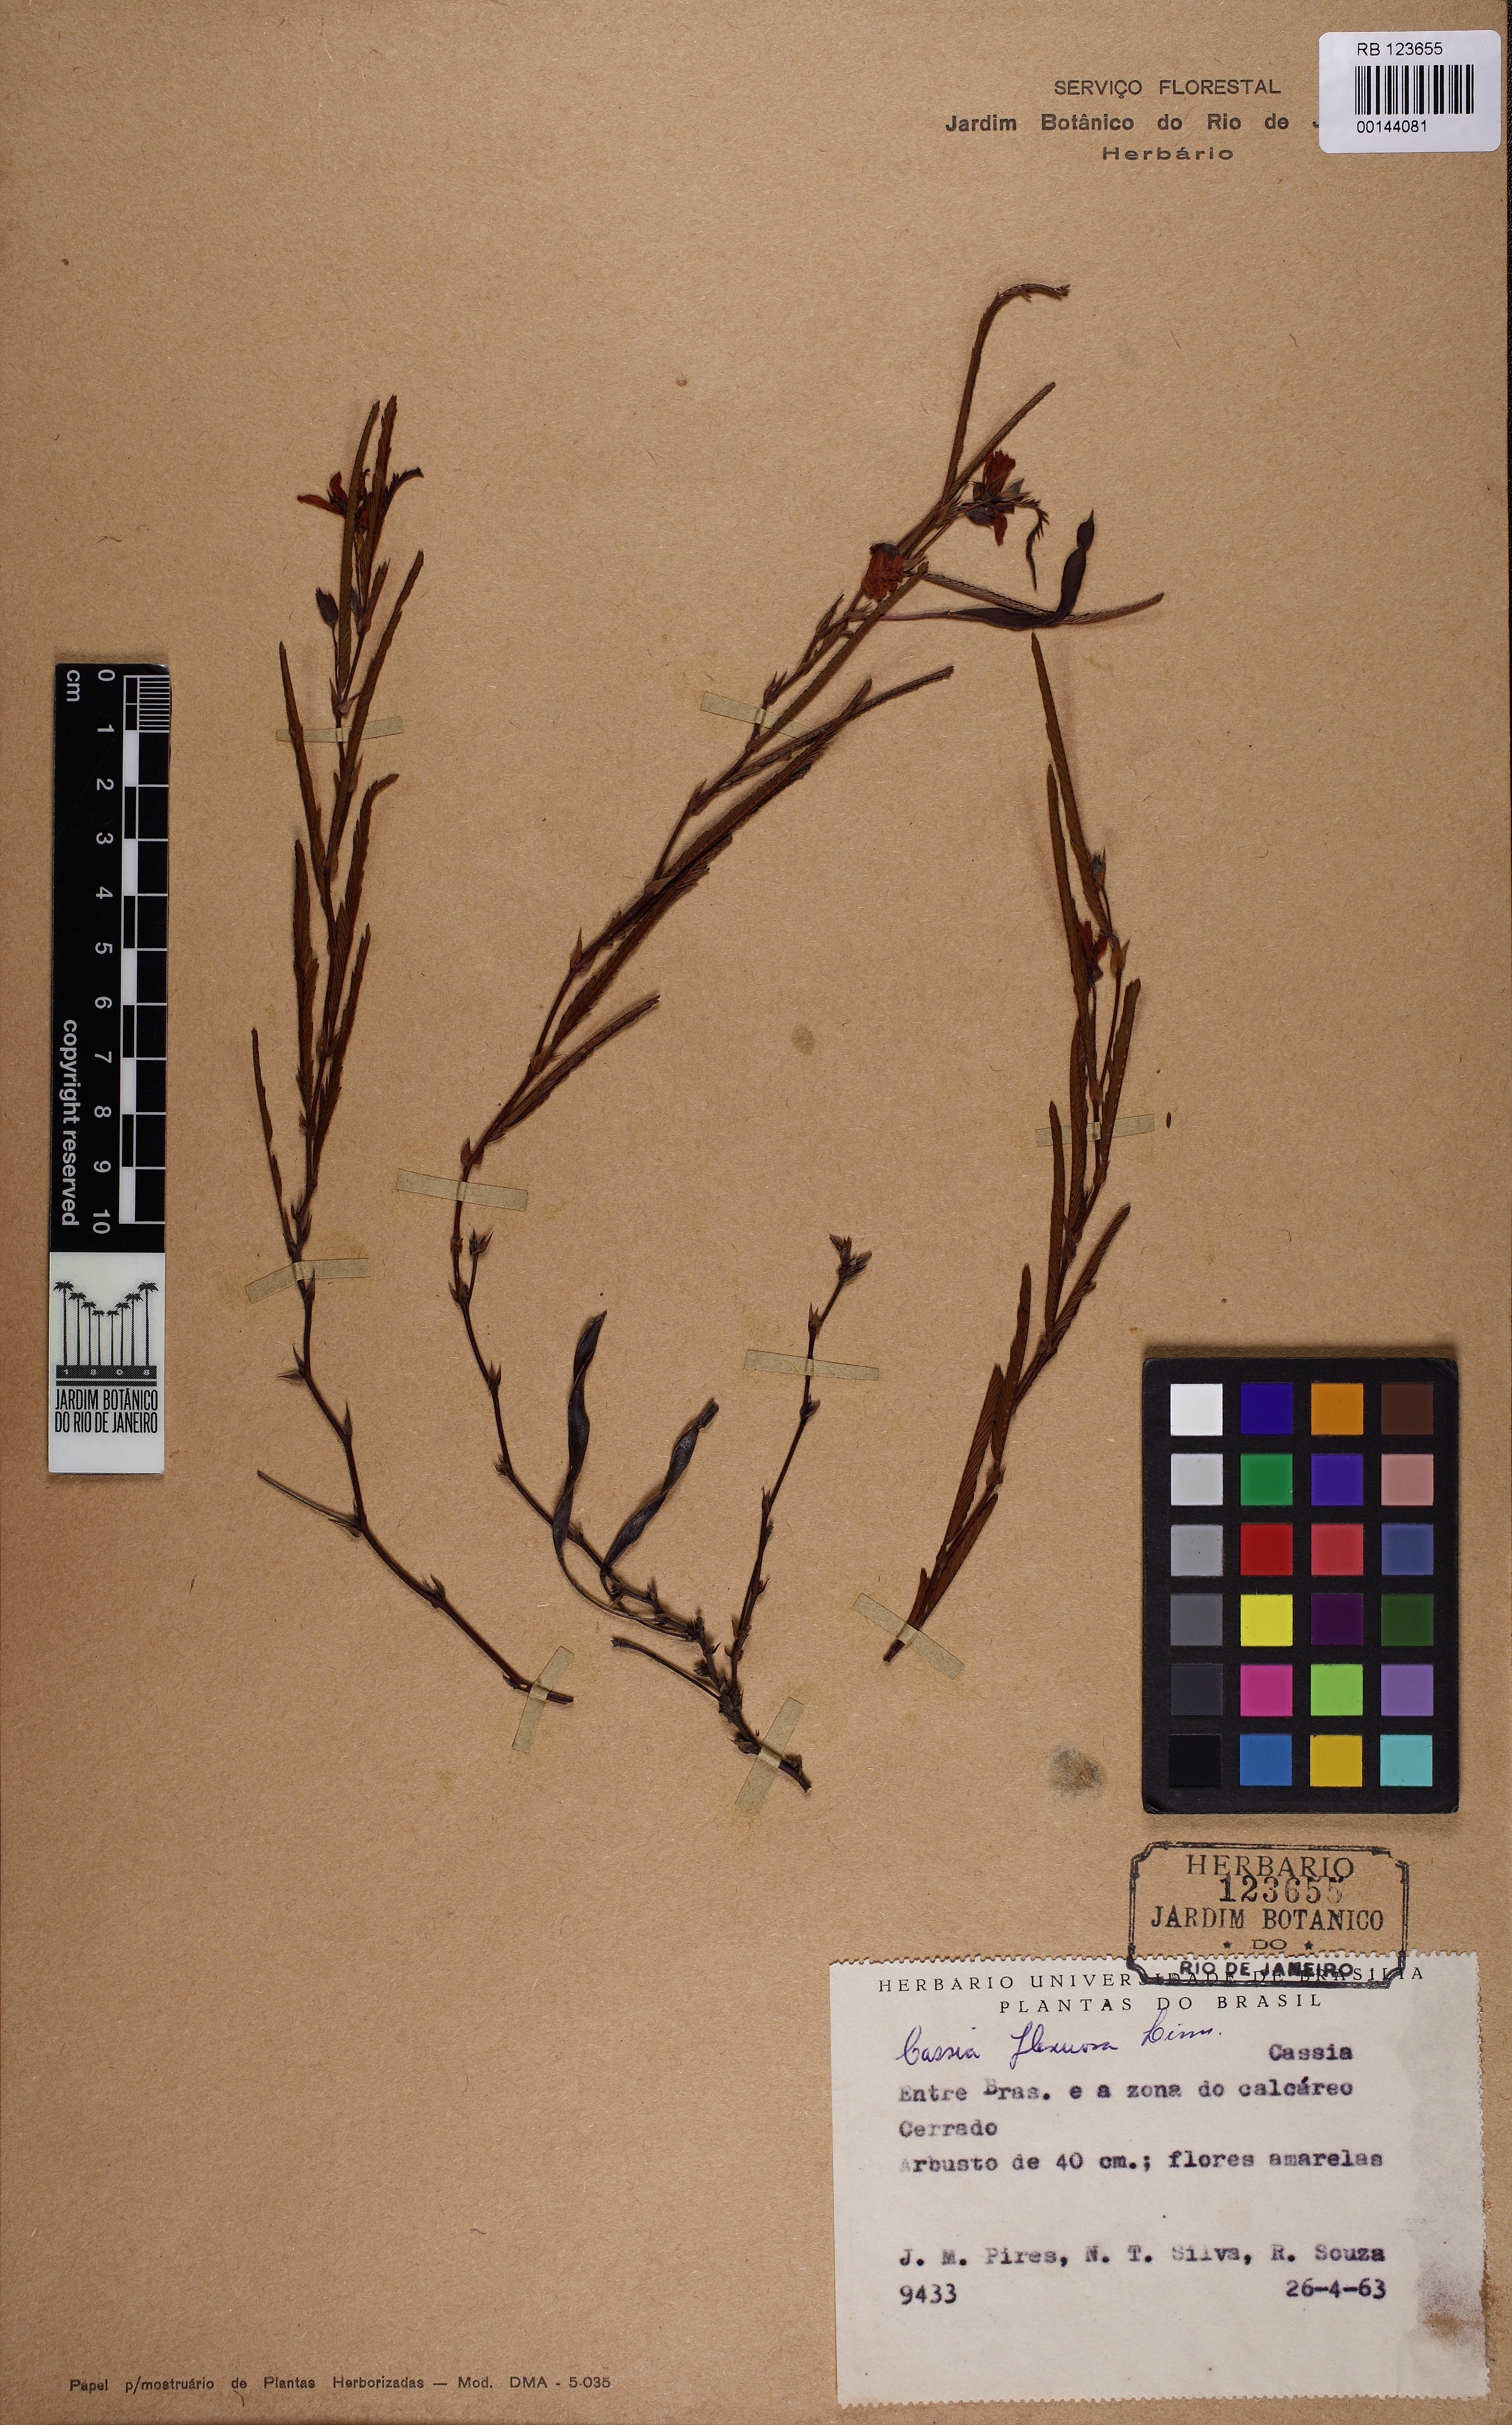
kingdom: Plantae
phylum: Tracheophyta
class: Magnoliopsida
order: Fabales
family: Fabaceae
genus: Chamaecrista
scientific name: Chamaecrista flexuosa
